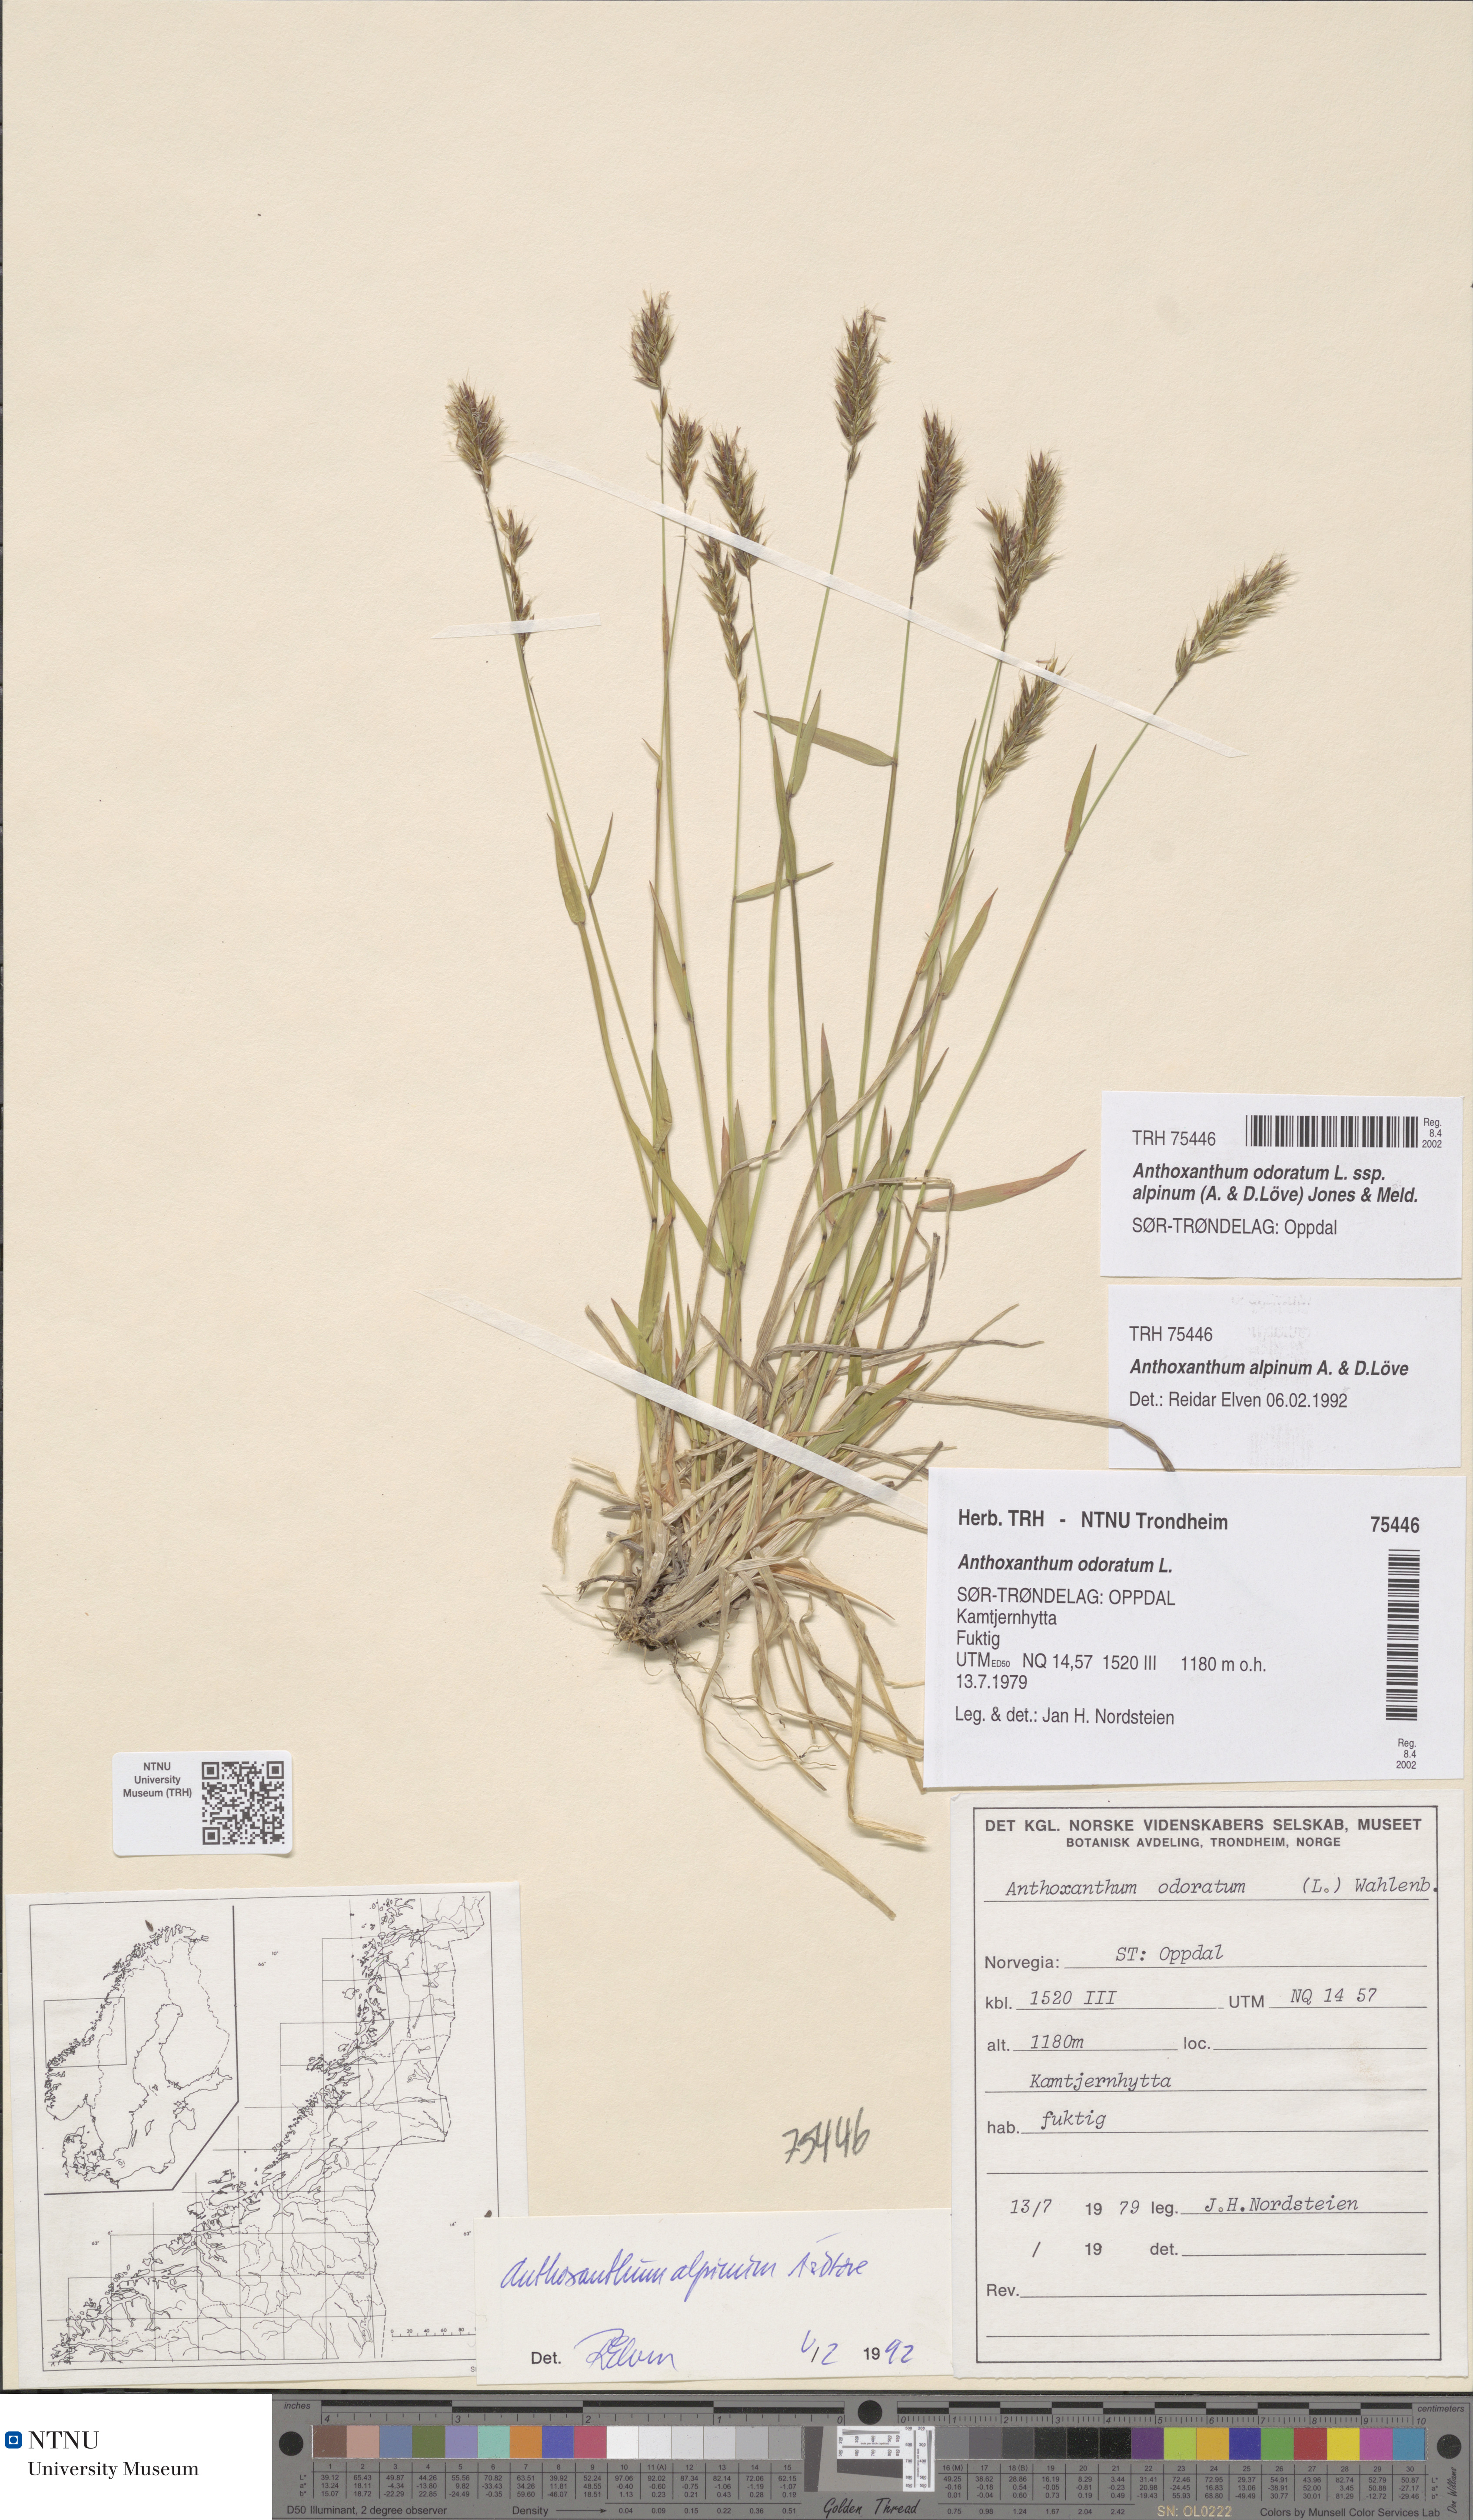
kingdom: Plantae
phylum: Tracheophyta
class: Liliopsida
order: Poales
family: Poaceae
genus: Anthoxanthum
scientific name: Anthoxanthum nipponicum
